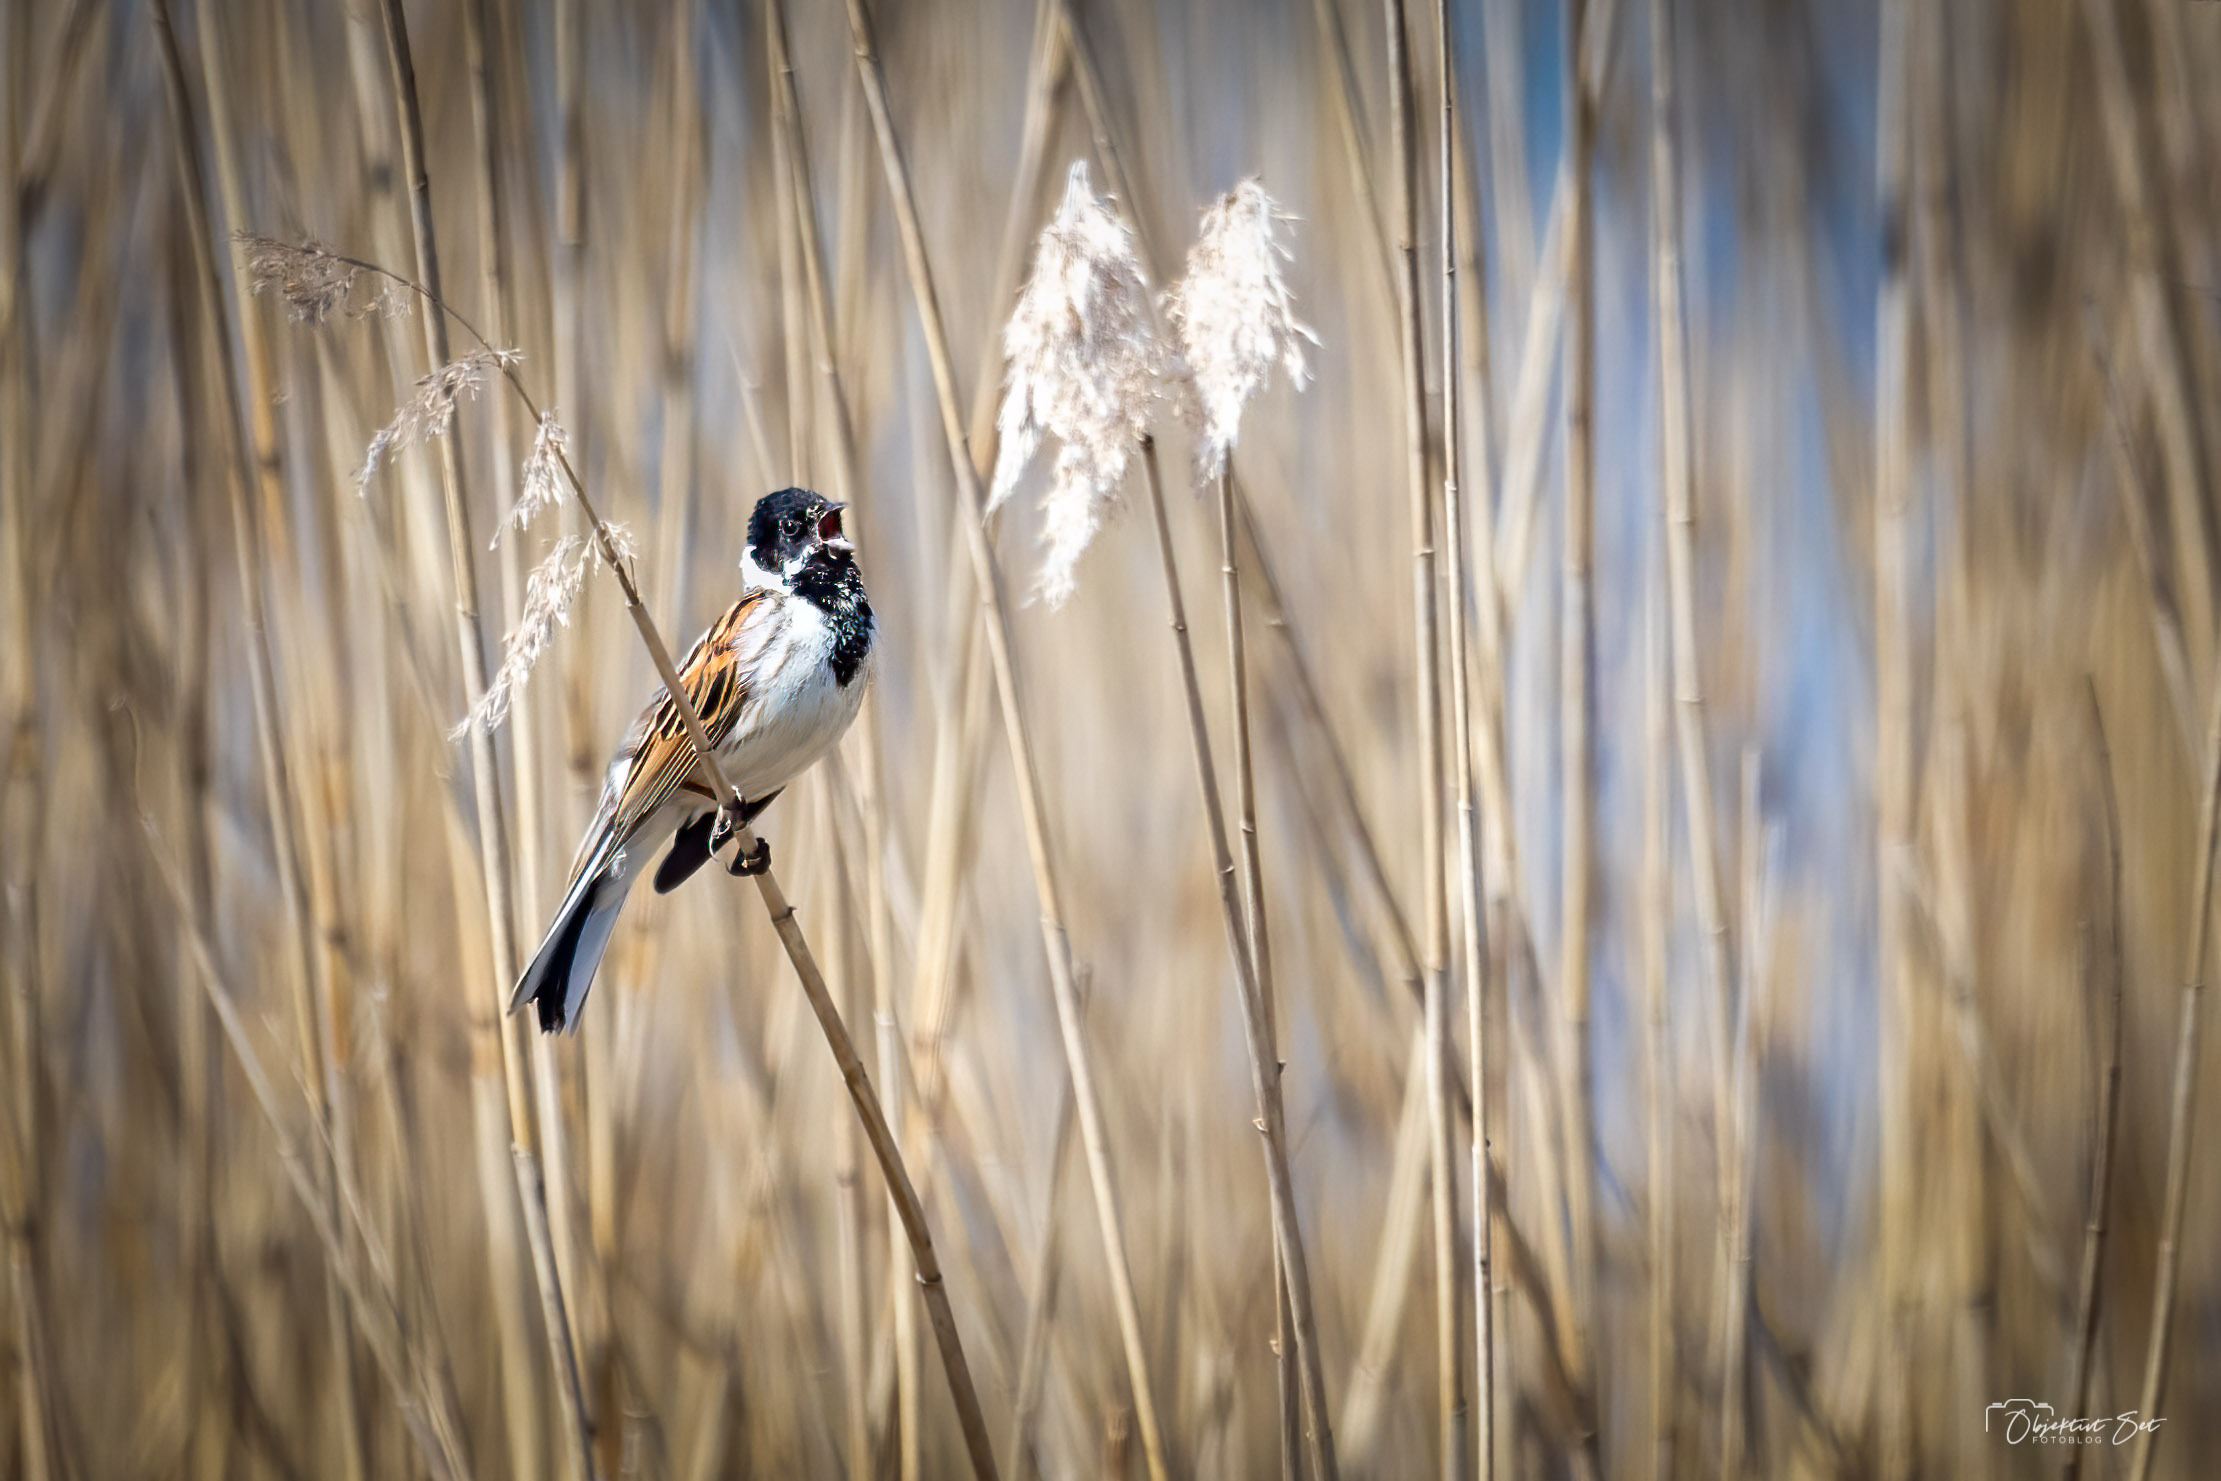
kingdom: Animalia
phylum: Chordata
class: Aves
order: Passeriformes
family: Emberizidae
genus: Emberiza
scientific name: Emberiza schoeniclus
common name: Rørspurv
